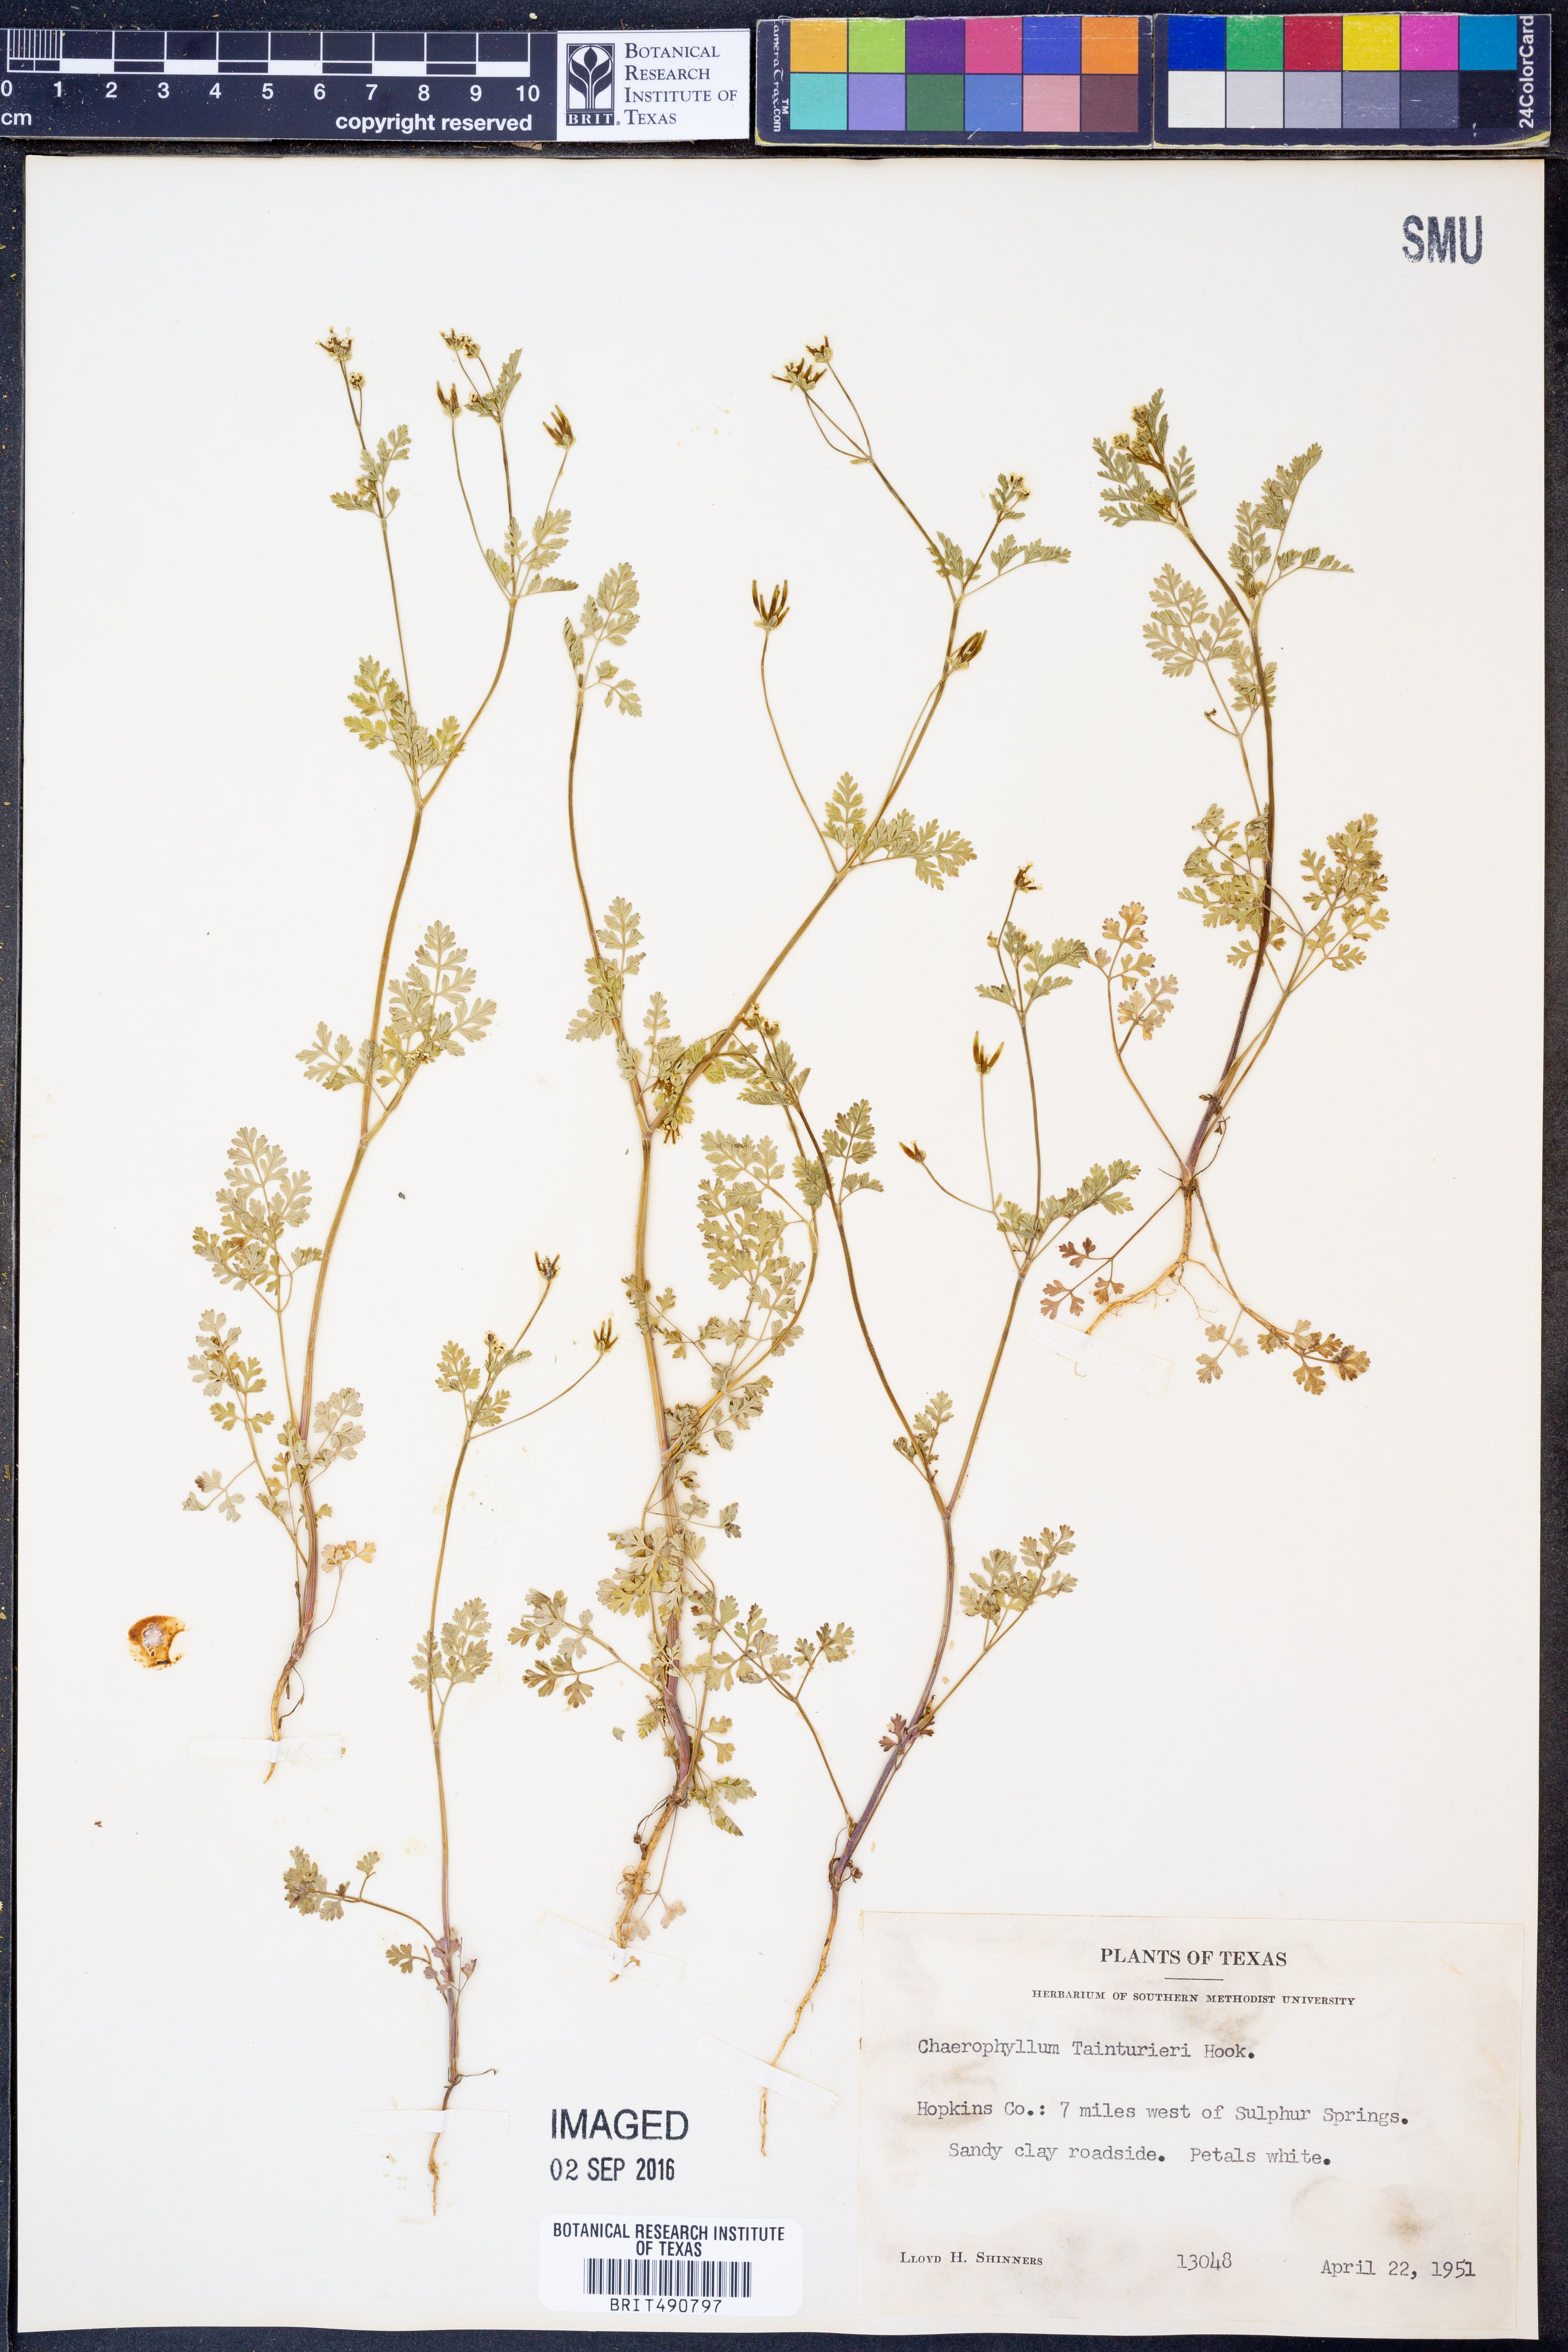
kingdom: Plantae
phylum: Tracheophyta
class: Magnoliopsida
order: Apiales
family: Apiaceae
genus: Chaerophyllum
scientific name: Chaerophyllum tainturieri
